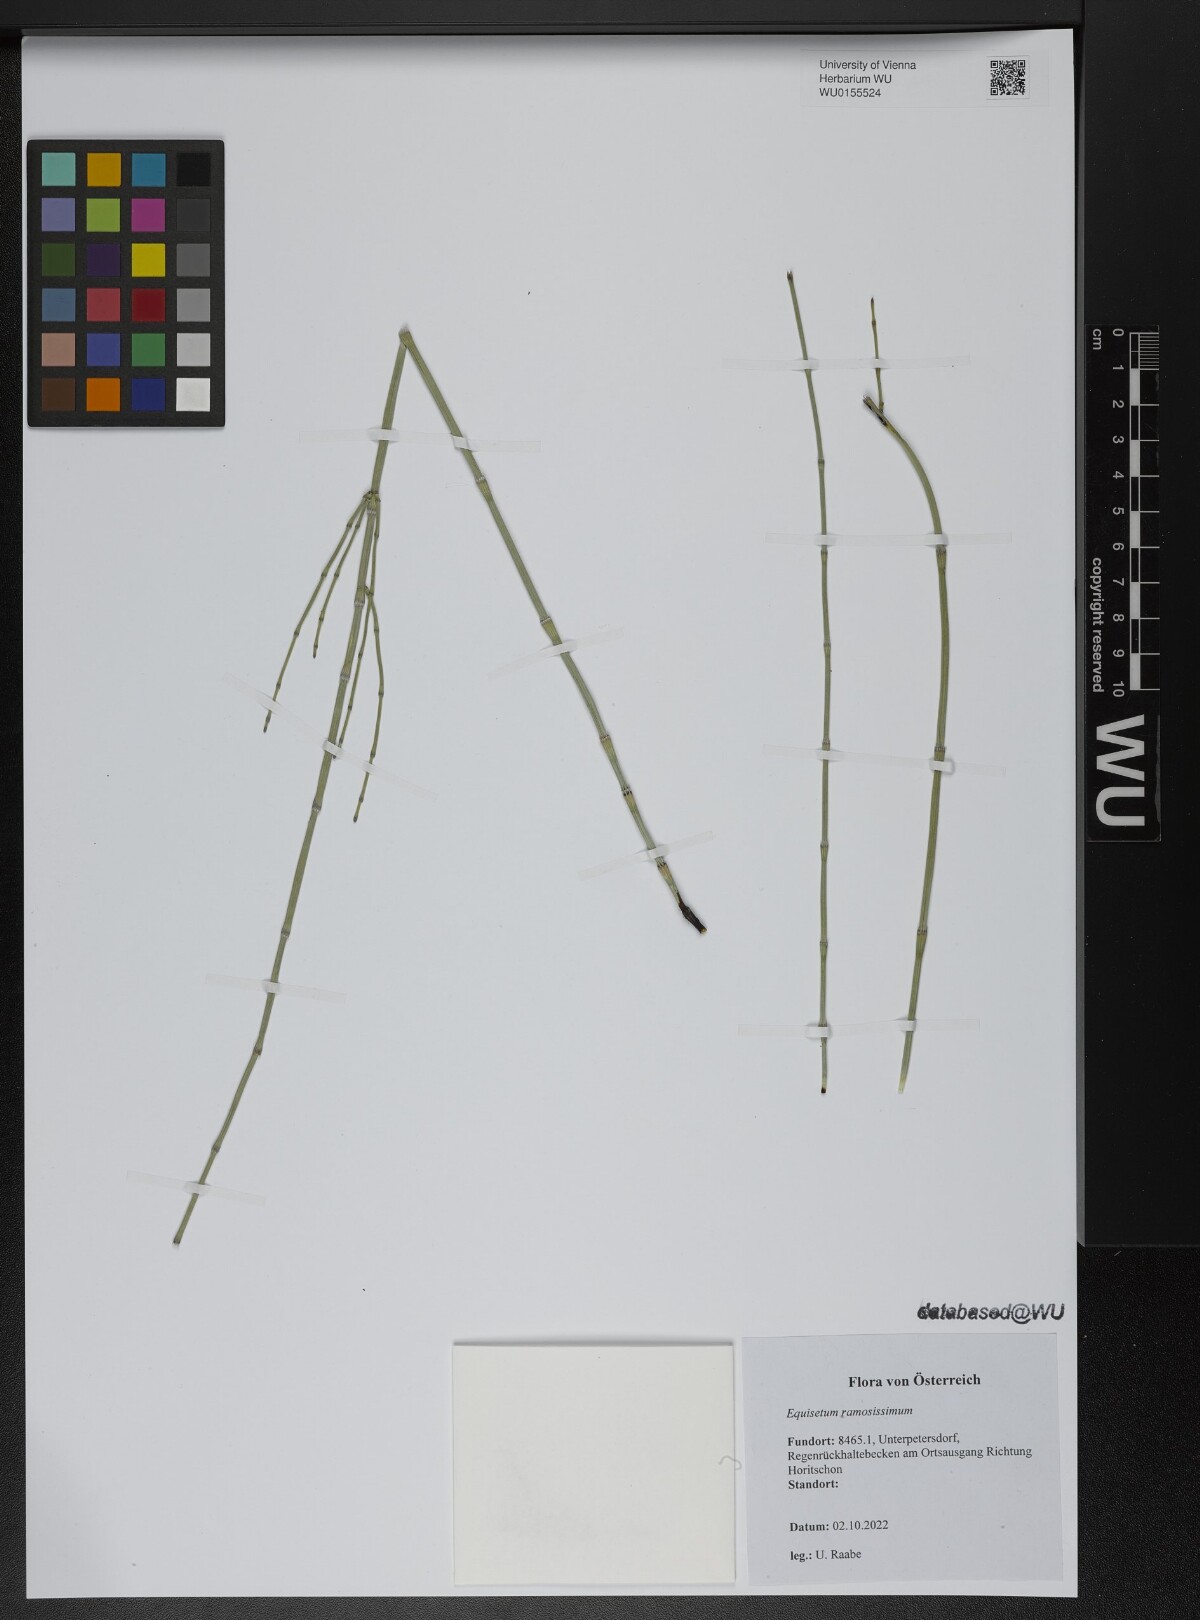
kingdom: Plantae
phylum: Tracheophyta
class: Polypodiopsida
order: Equisetales
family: Equisetaceae
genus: Equisetum
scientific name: Equisetum ramosissimum
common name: Branched horsetail
